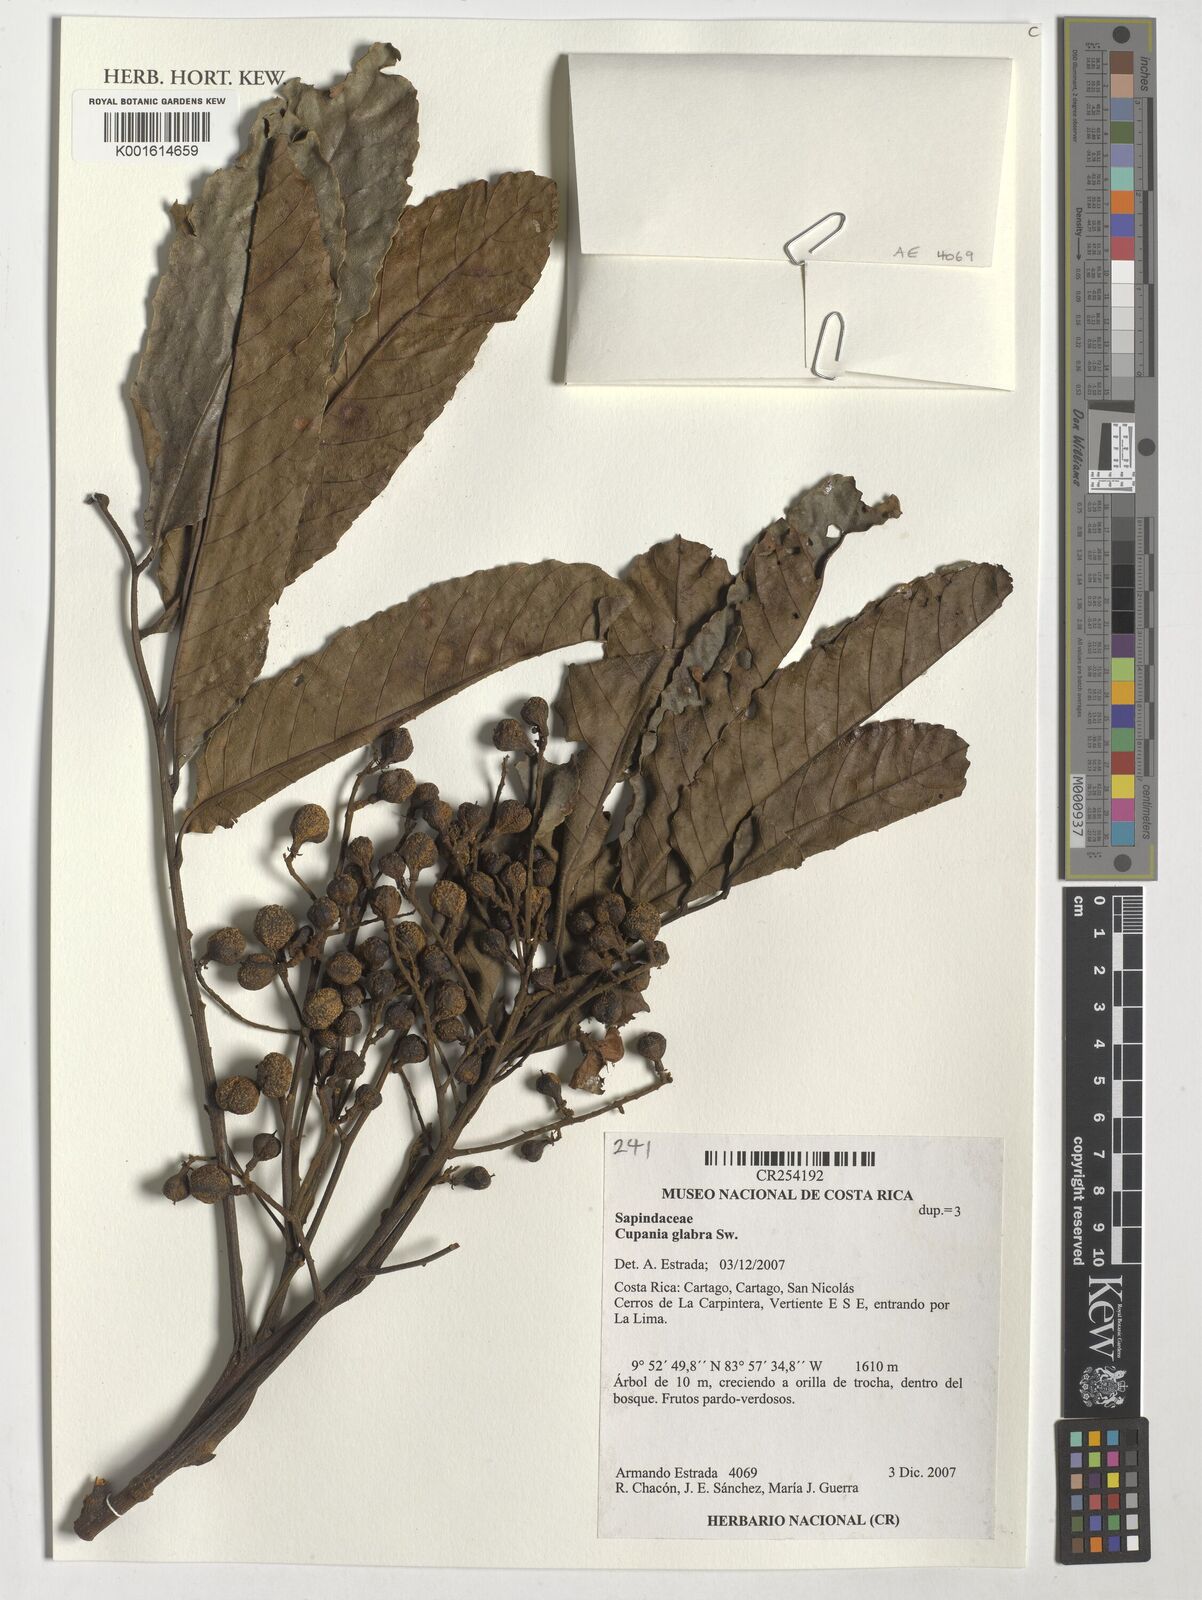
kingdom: Plantae
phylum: Tracheophyta
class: Magnoliopsida
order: Sapindales
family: Sapindaceae
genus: Cupania
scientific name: Cupania glabra
